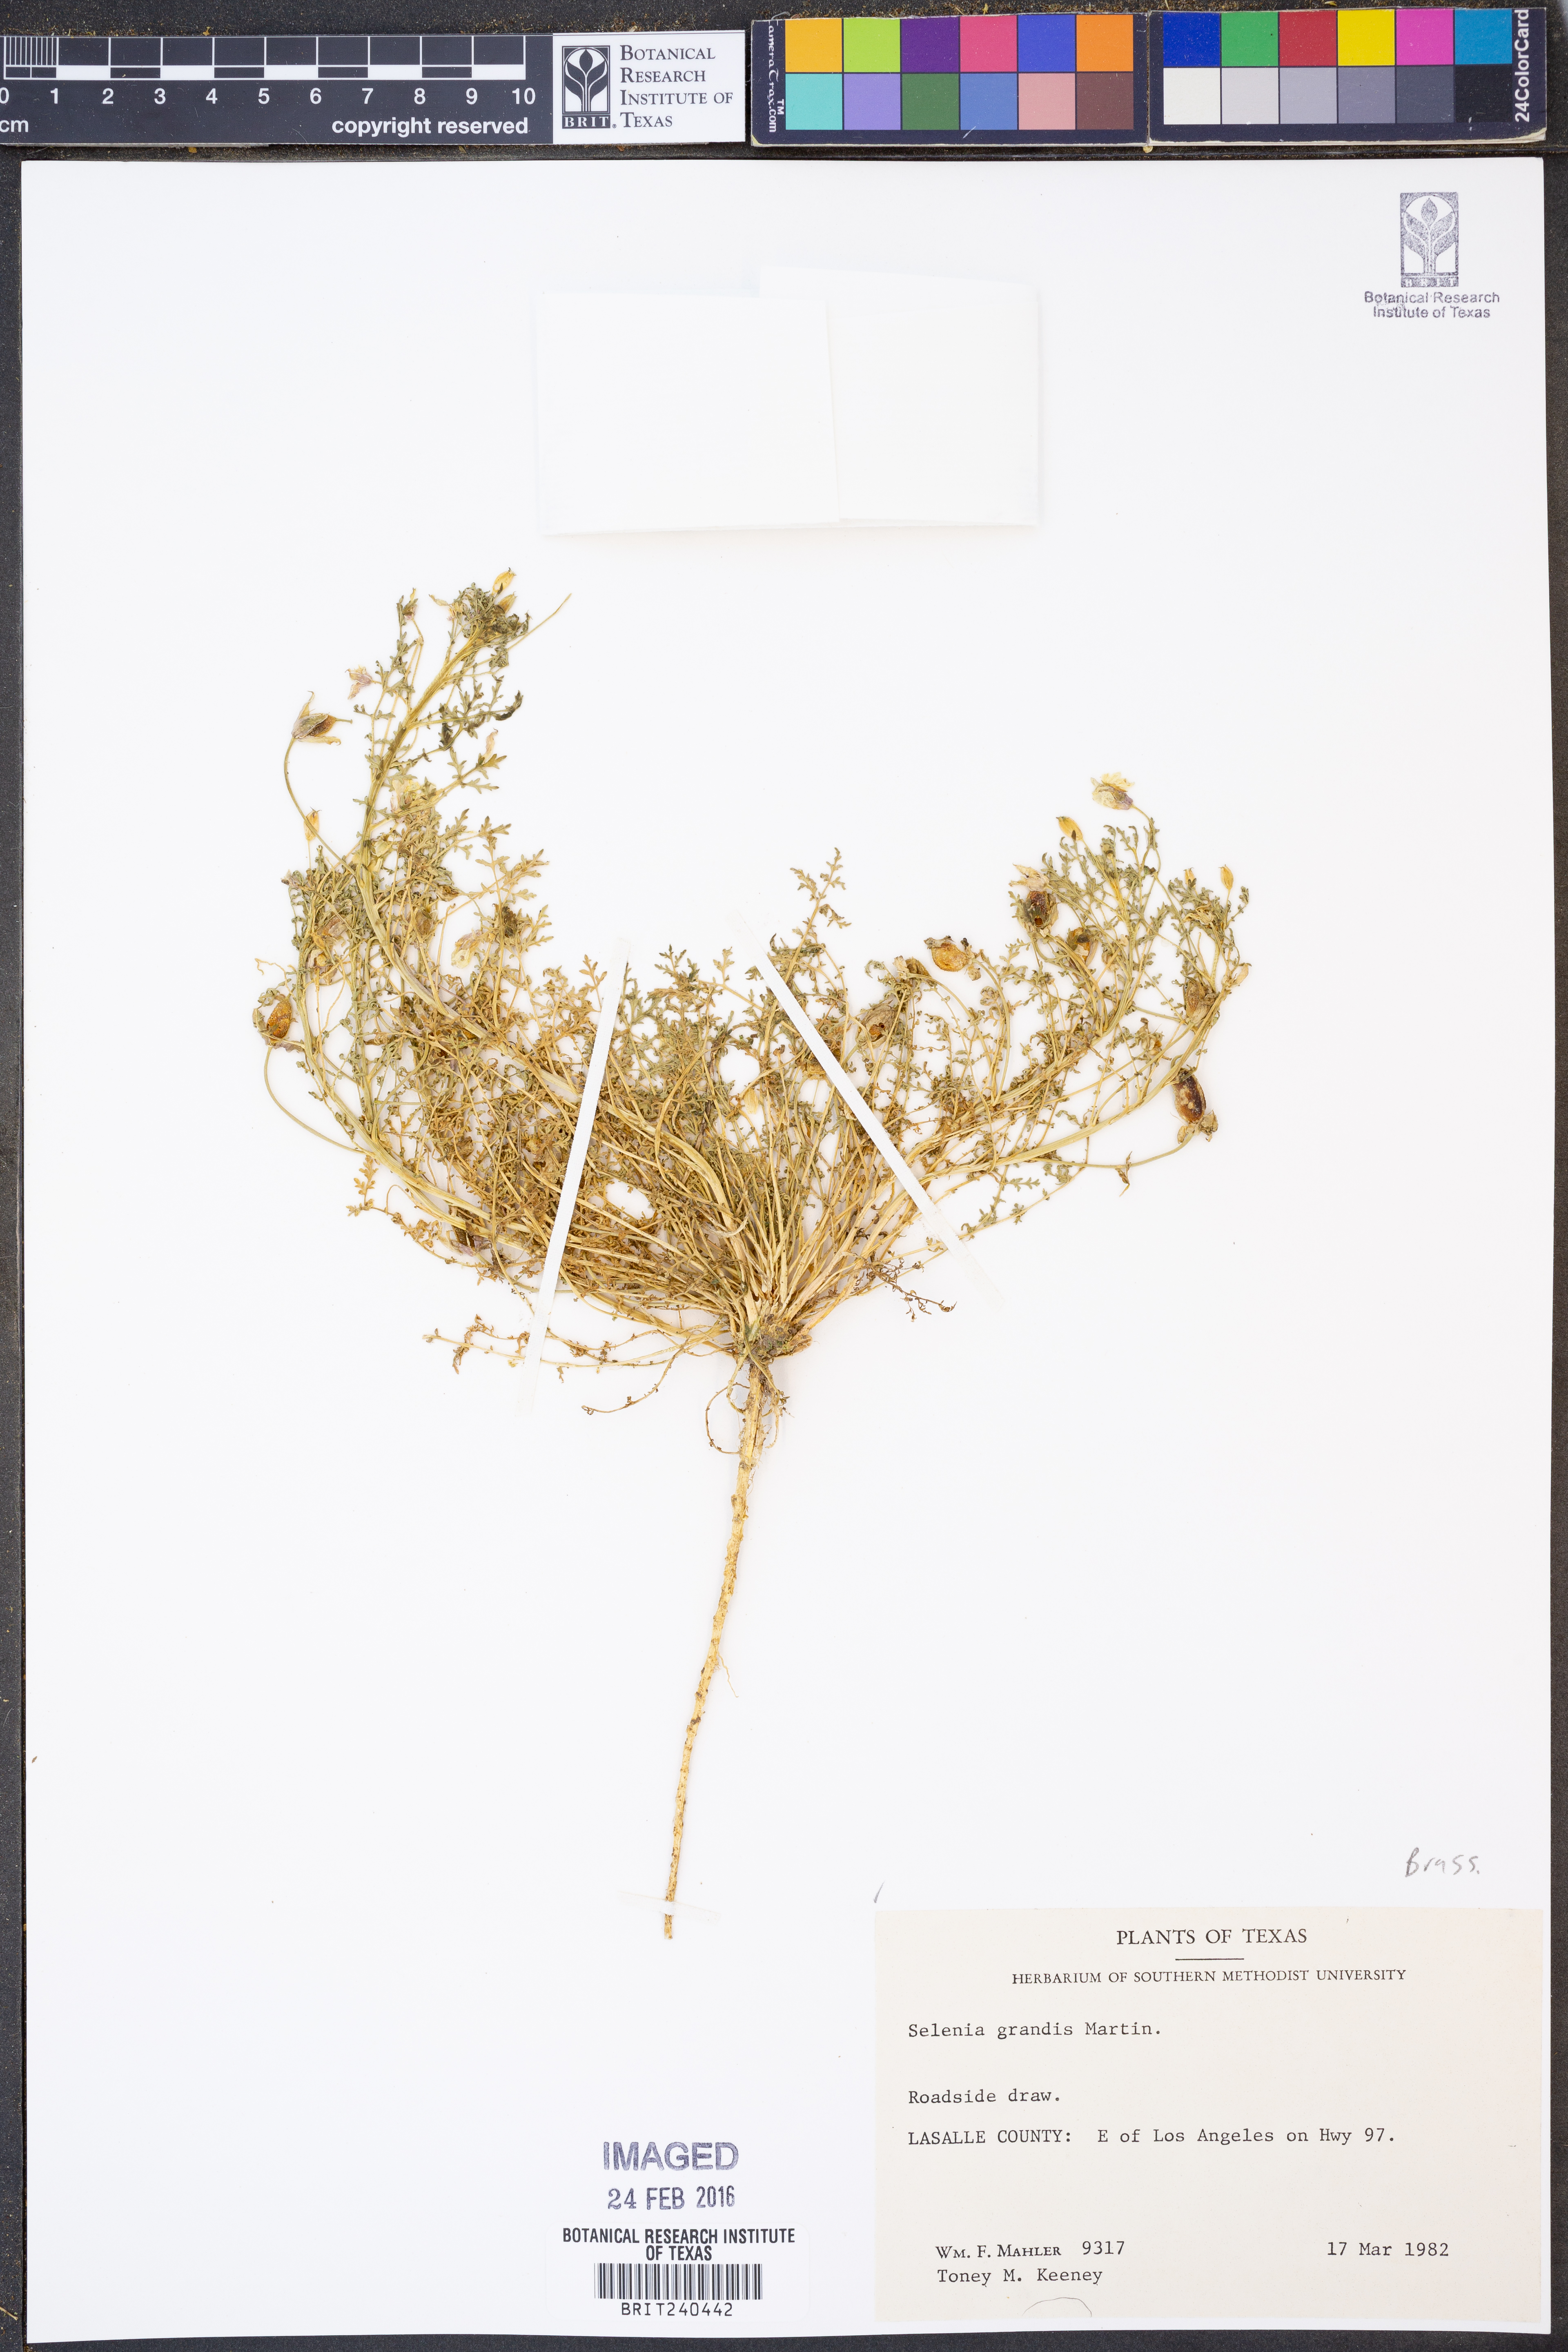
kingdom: Plantae
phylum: Tracheophyta
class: Magnoliopsida
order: Brassicales
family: Brassicaceae
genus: Selenia
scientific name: Selenia grandis
